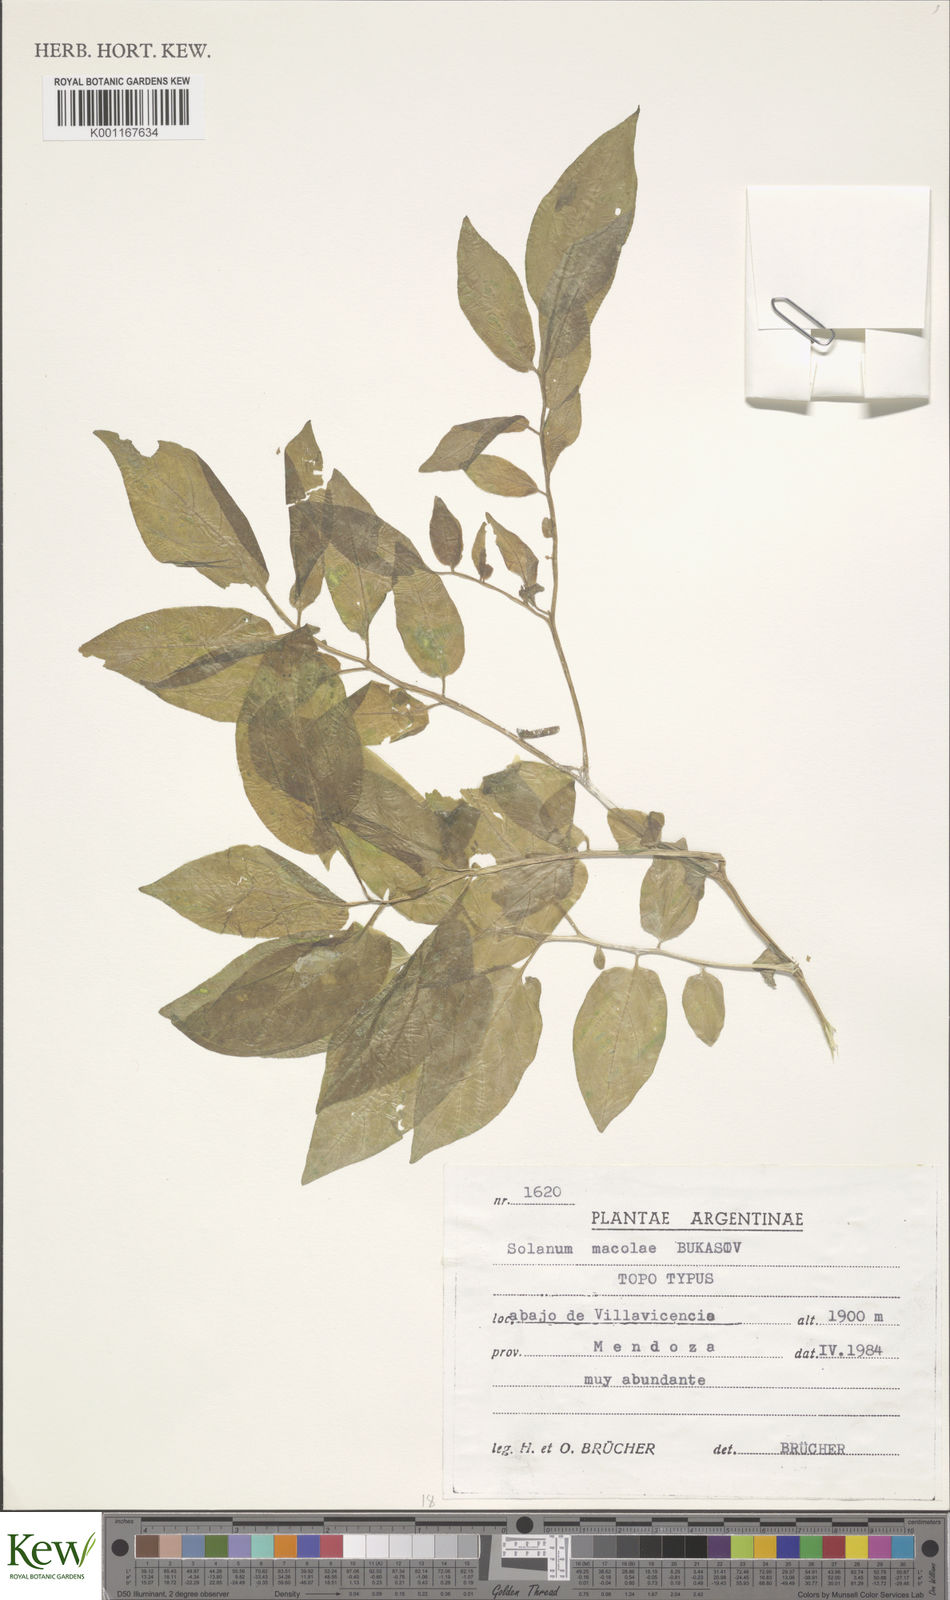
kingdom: Plantae
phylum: Tracheophyta
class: Magnoliopsida
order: Solanales
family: Solanaceae
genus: Solanum
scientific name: Solanum maglia
